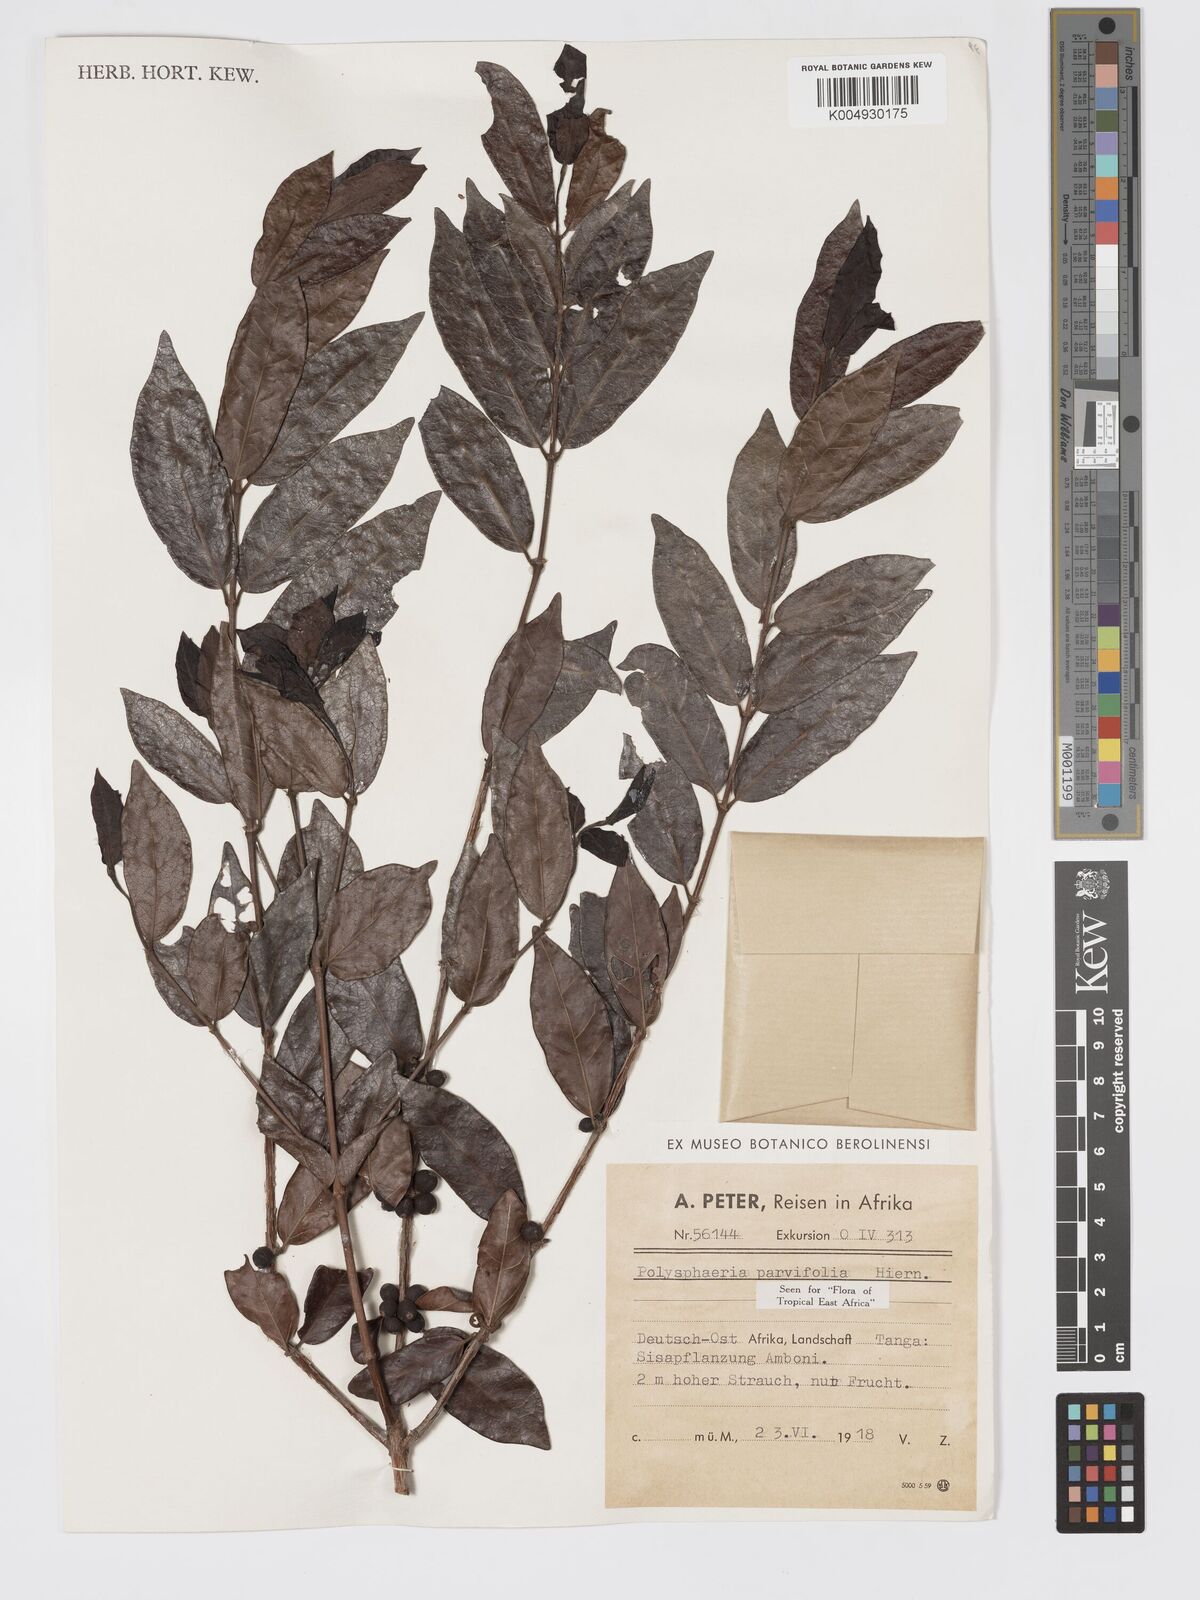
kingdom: Plantae
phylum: Tracheophyta
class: Magnoliopsida
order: Gentianales
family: Rubiaceae
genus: Polysphaeria
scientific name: Polysphaeria parvifolia
